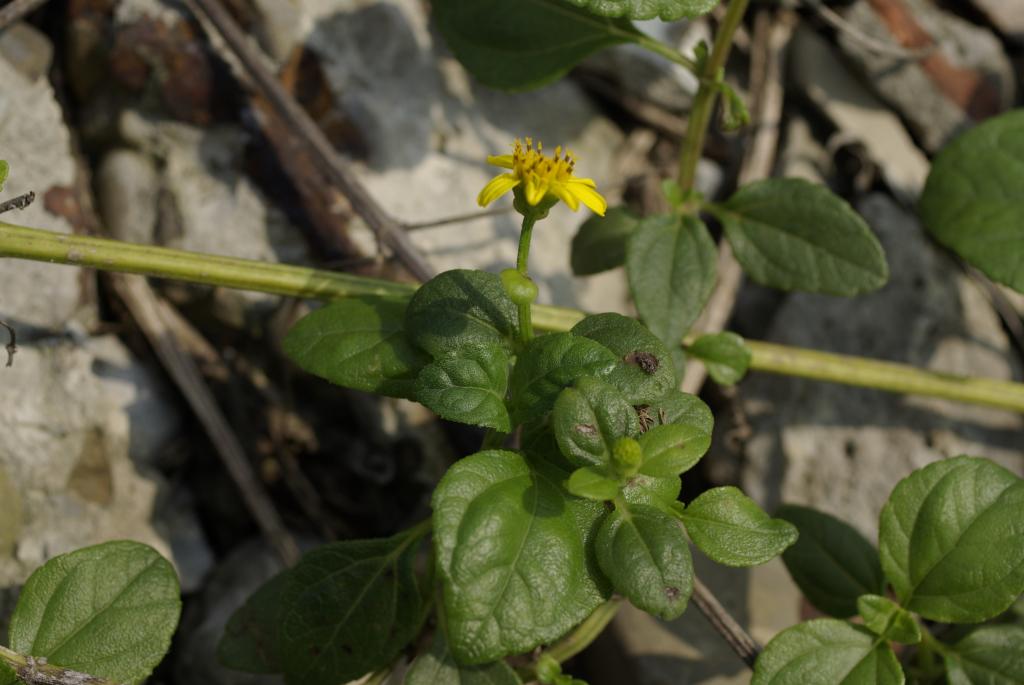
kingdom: Plantae
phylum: Tracheophyta
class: Magnoliopsida
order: Asterales
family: Asteraceae
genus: Melanthera
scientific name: Melanthera
